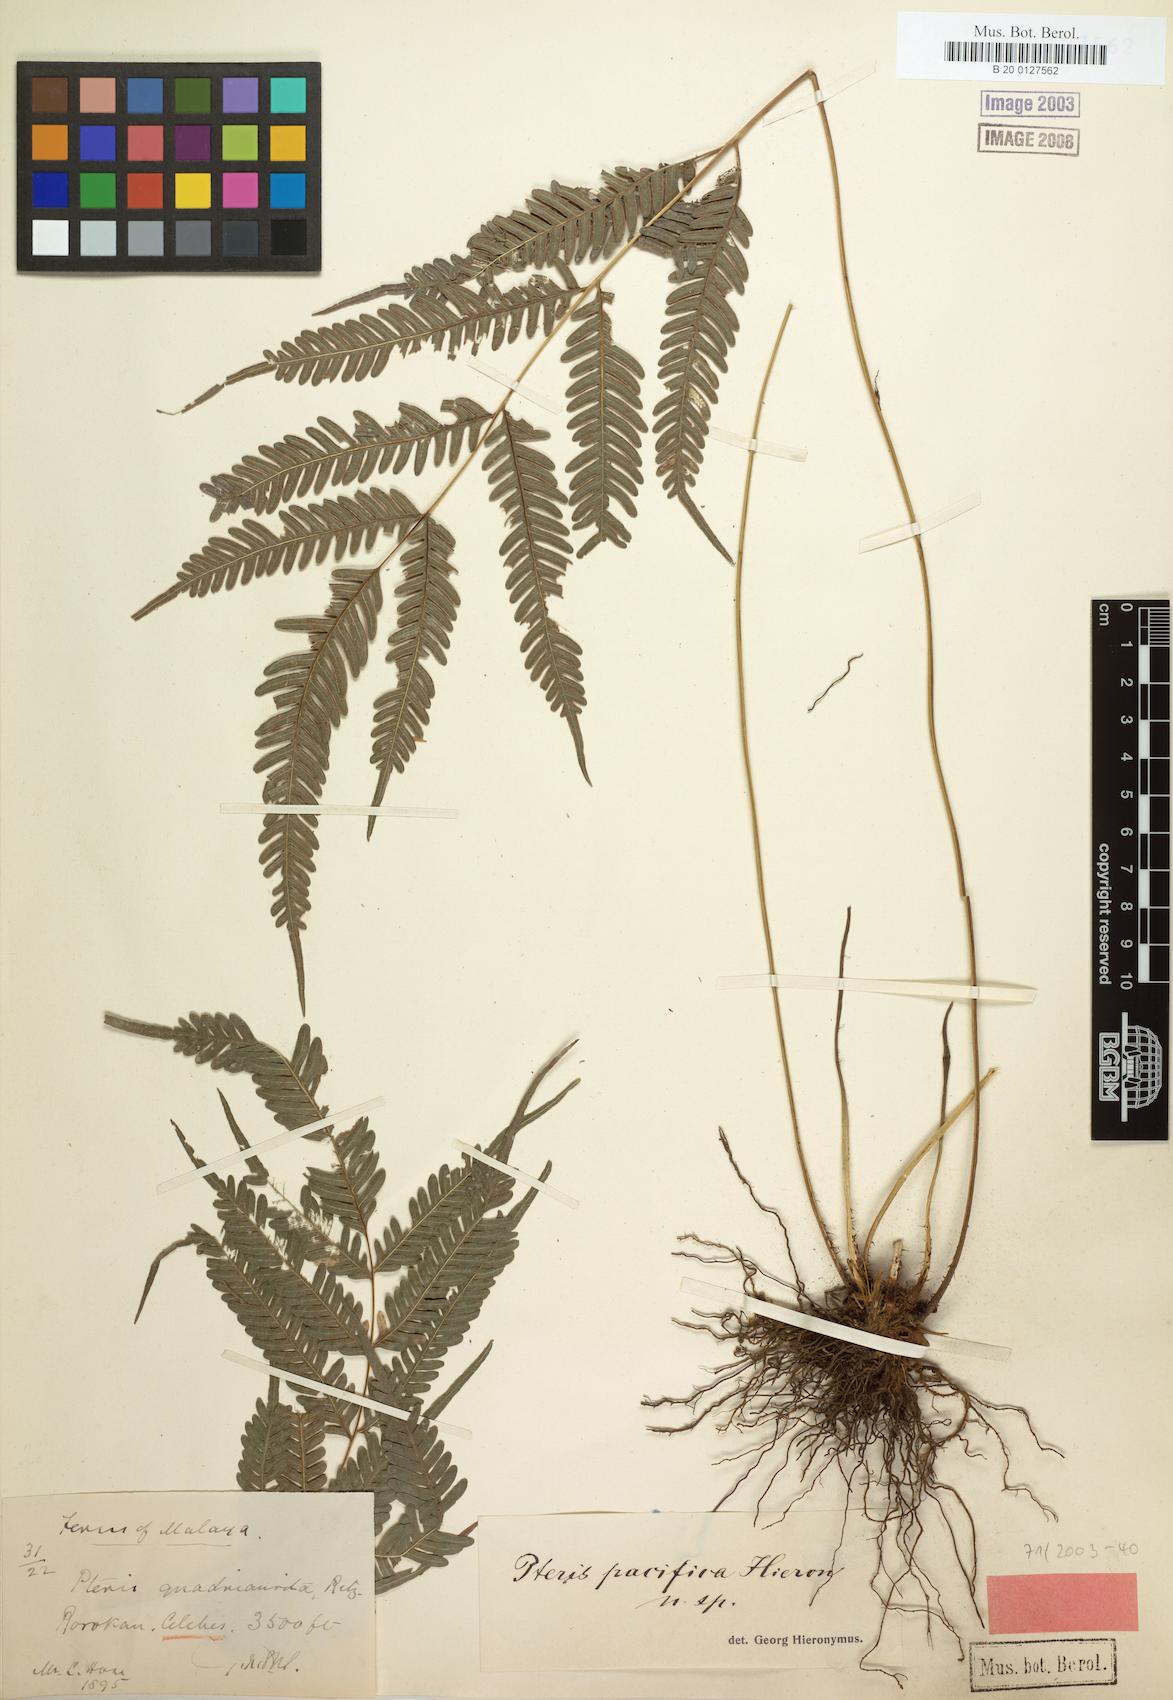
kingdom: Plantae
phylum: Tracheophyta
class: Polypodiopsida
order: Polypodiales
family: Pteridaceae
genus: Pteris
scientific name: Pteris biaurita
